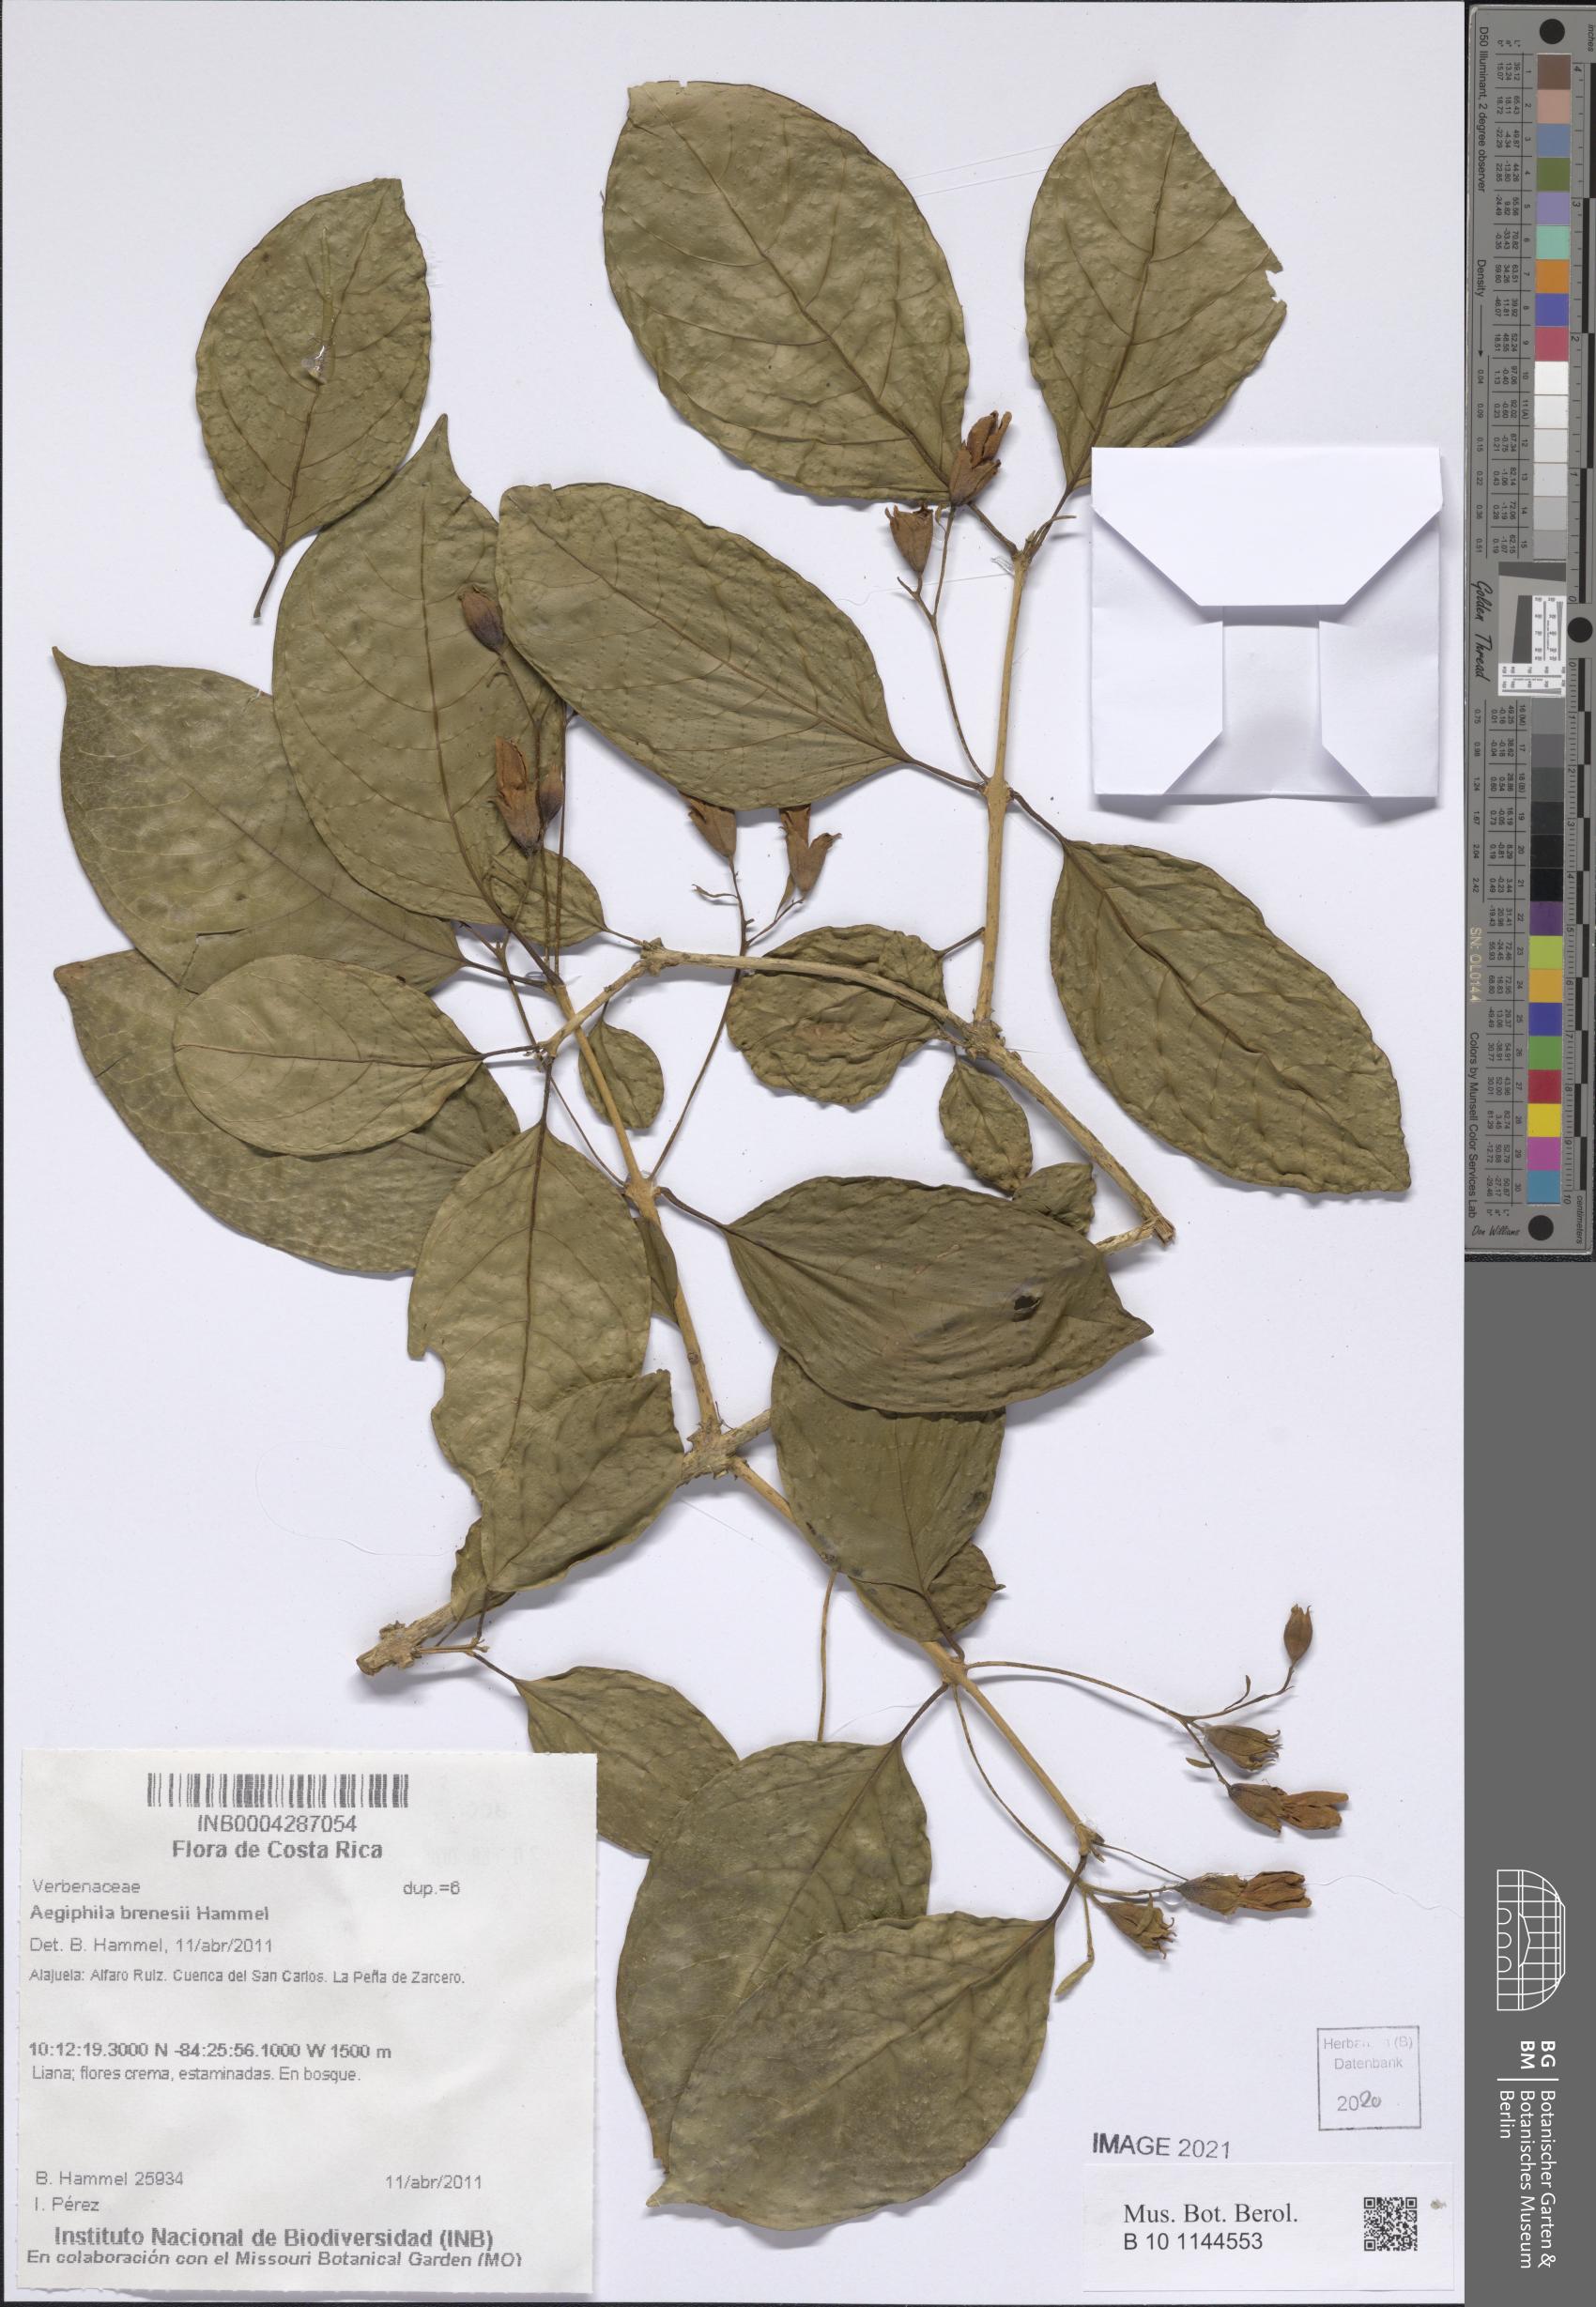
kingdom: Plantae
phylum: Tracheophyta
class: Magnoliopsida
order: Lamiales
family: Lamiaceae
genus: Aegiphila
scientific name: Aegiphila brenesii
